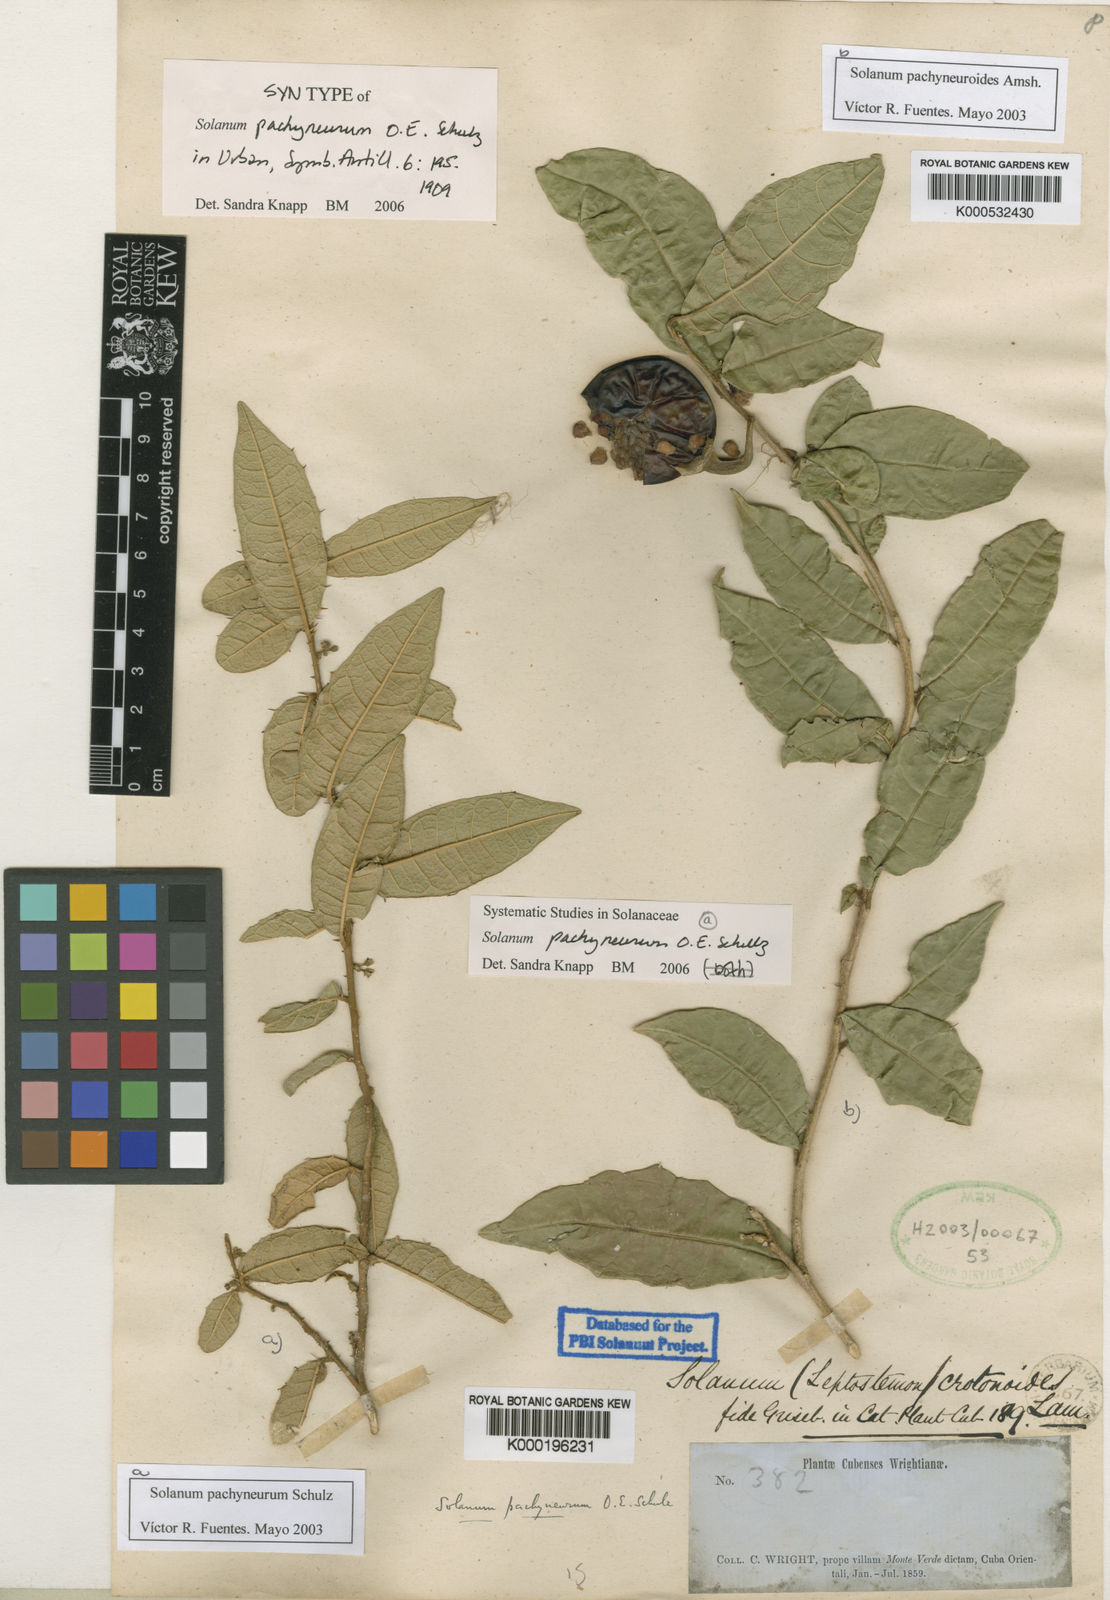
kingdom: Plantae
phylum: Tracheophyta
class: Magnoliopsida
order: Solanales
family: Solanaceae
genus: Solanum
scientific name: Solanum pachyneurum
